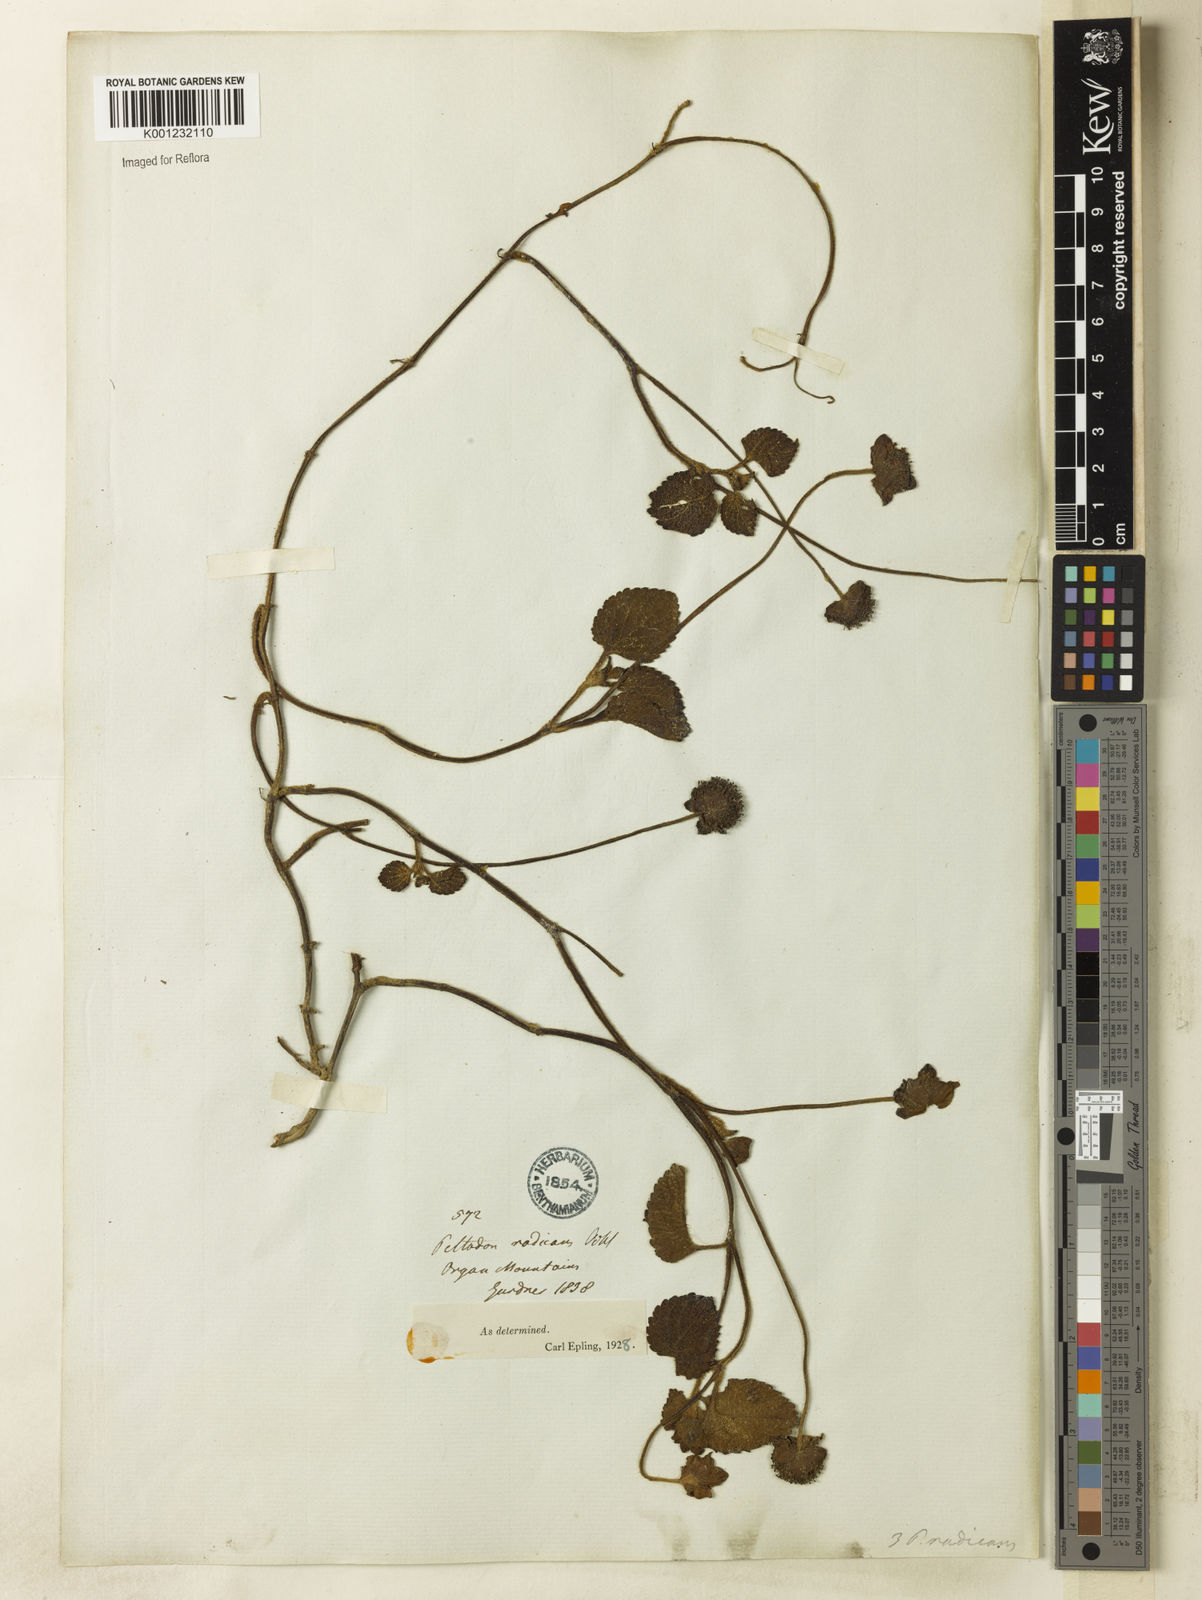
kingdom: Plantae
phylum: Tracheophyta
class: Magnoliopsida
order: Lamiales
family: Lamiaceae
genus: Hyptis
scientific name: Hyptis radicans
